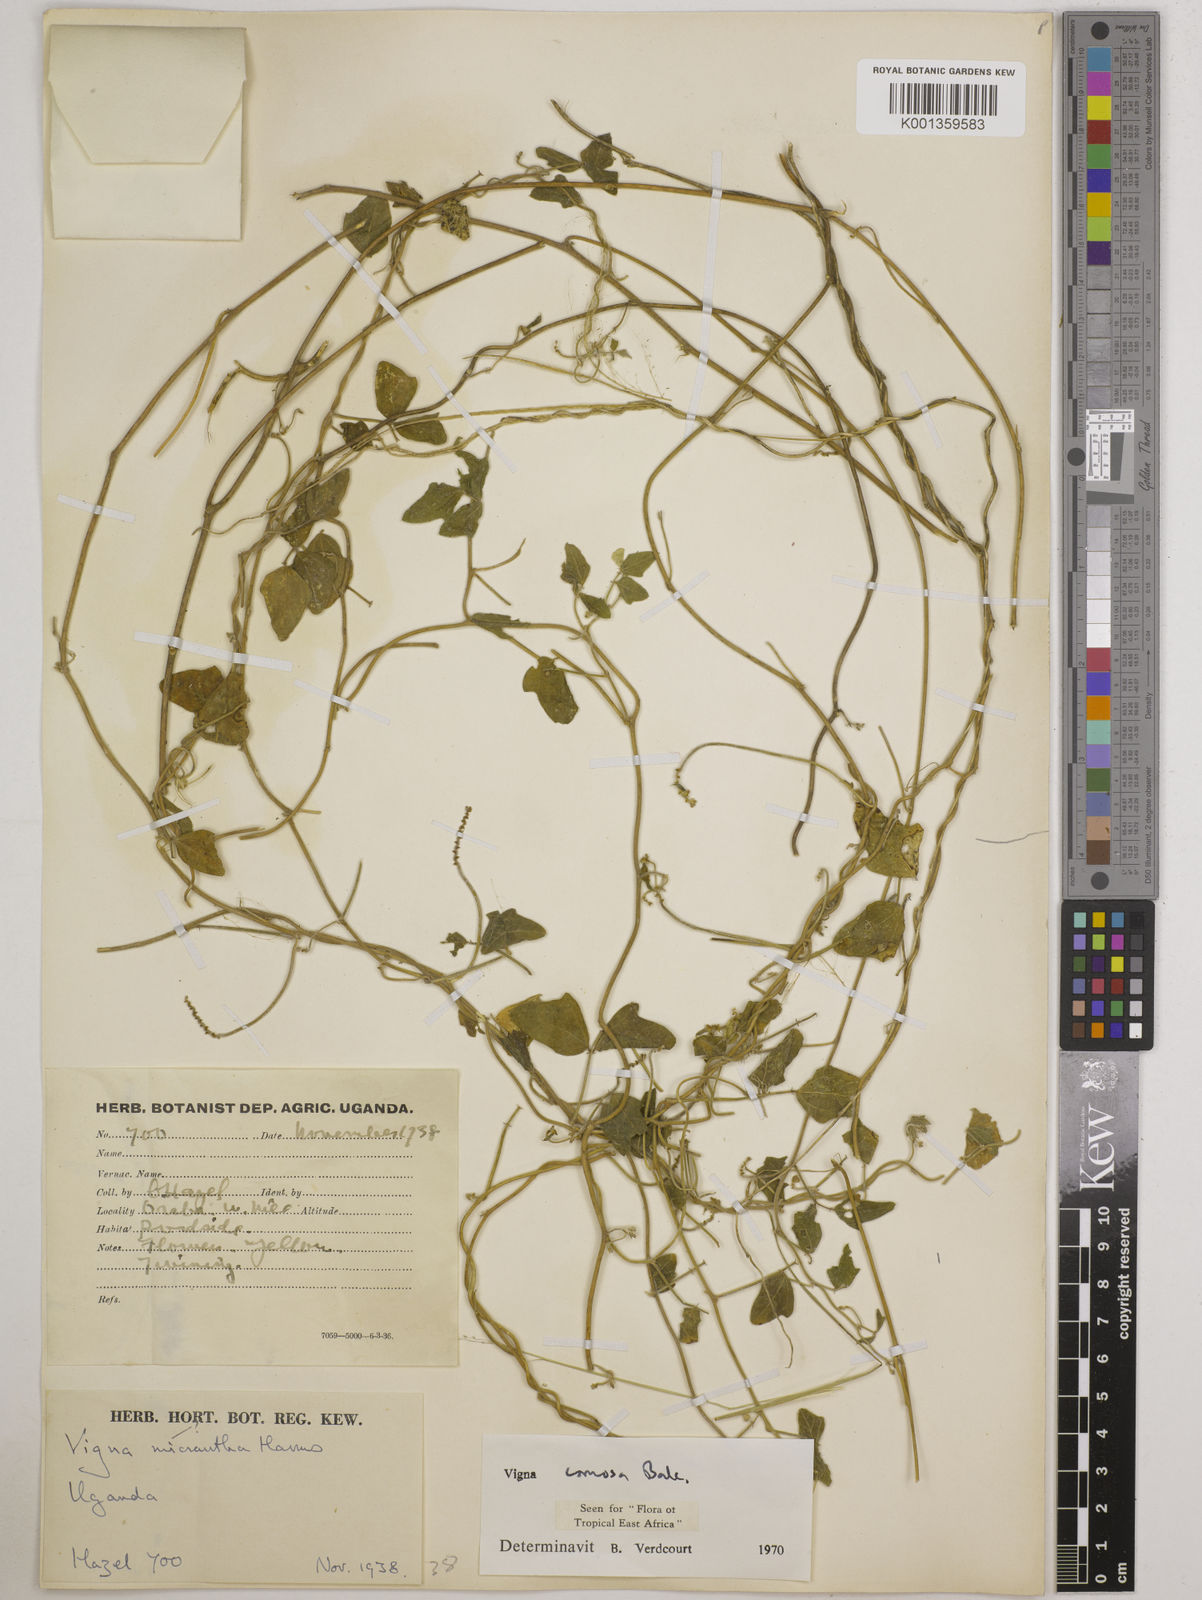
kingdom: Plantae
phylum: Tracheophyta
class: Magnoliopsida
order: Fabales
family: Fabaceae
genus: Vigna
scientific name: Vigna comosa
